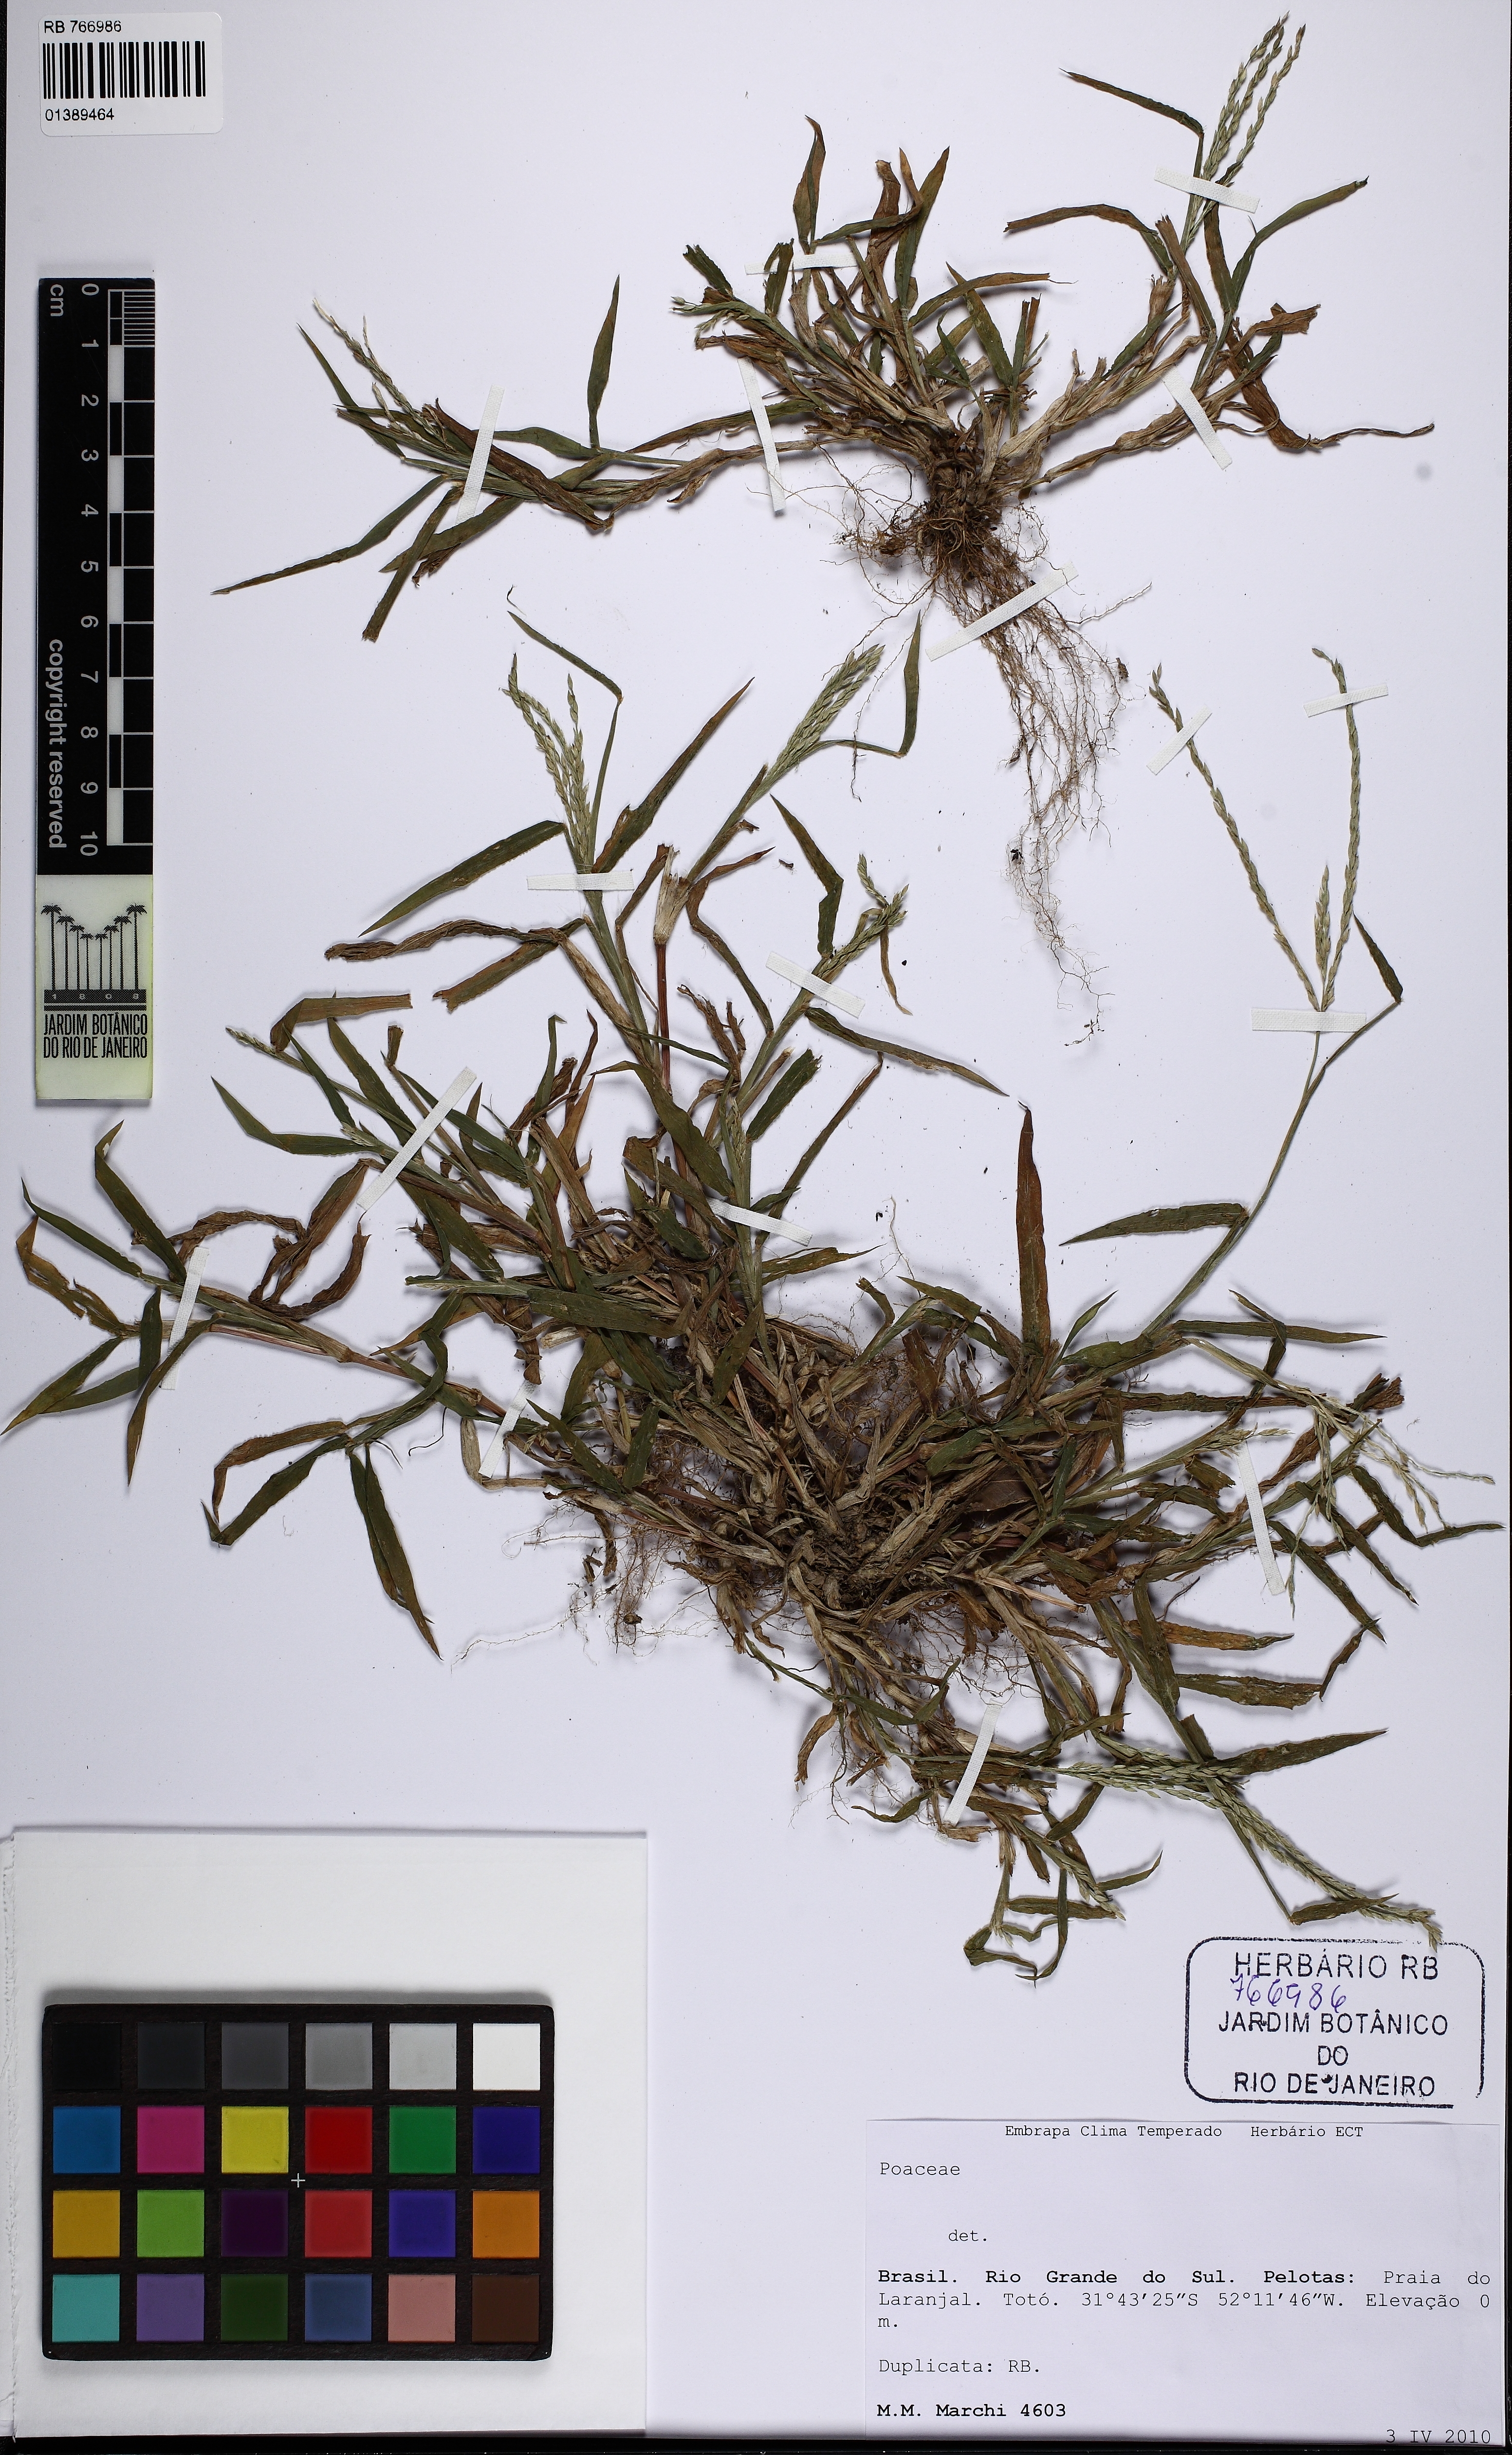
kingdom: Plantae
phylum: Tracheophyta
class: Liliopsida
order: Poales
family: Poaceae
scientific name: Poaceae
